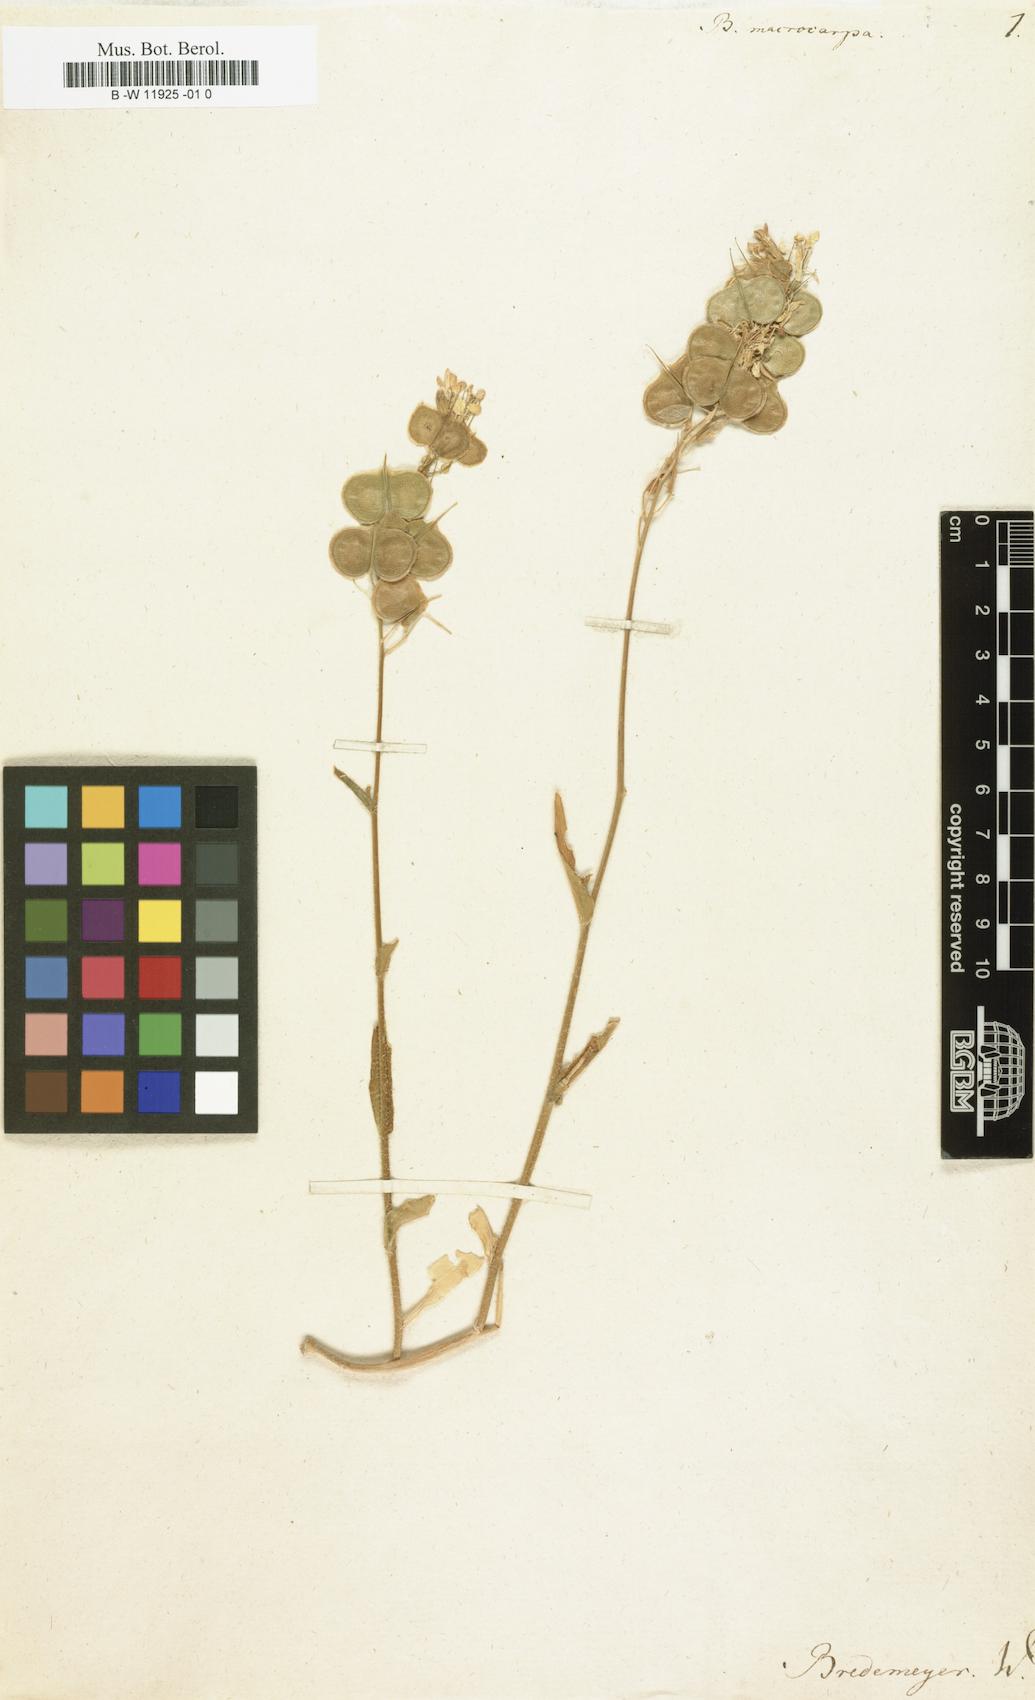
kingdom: Plantae
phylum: Tracheophyta
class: Magnoliopsida
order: Brassicales
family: Brassicaceae
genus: Biscutella
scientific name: Biscutella macrocarpa
